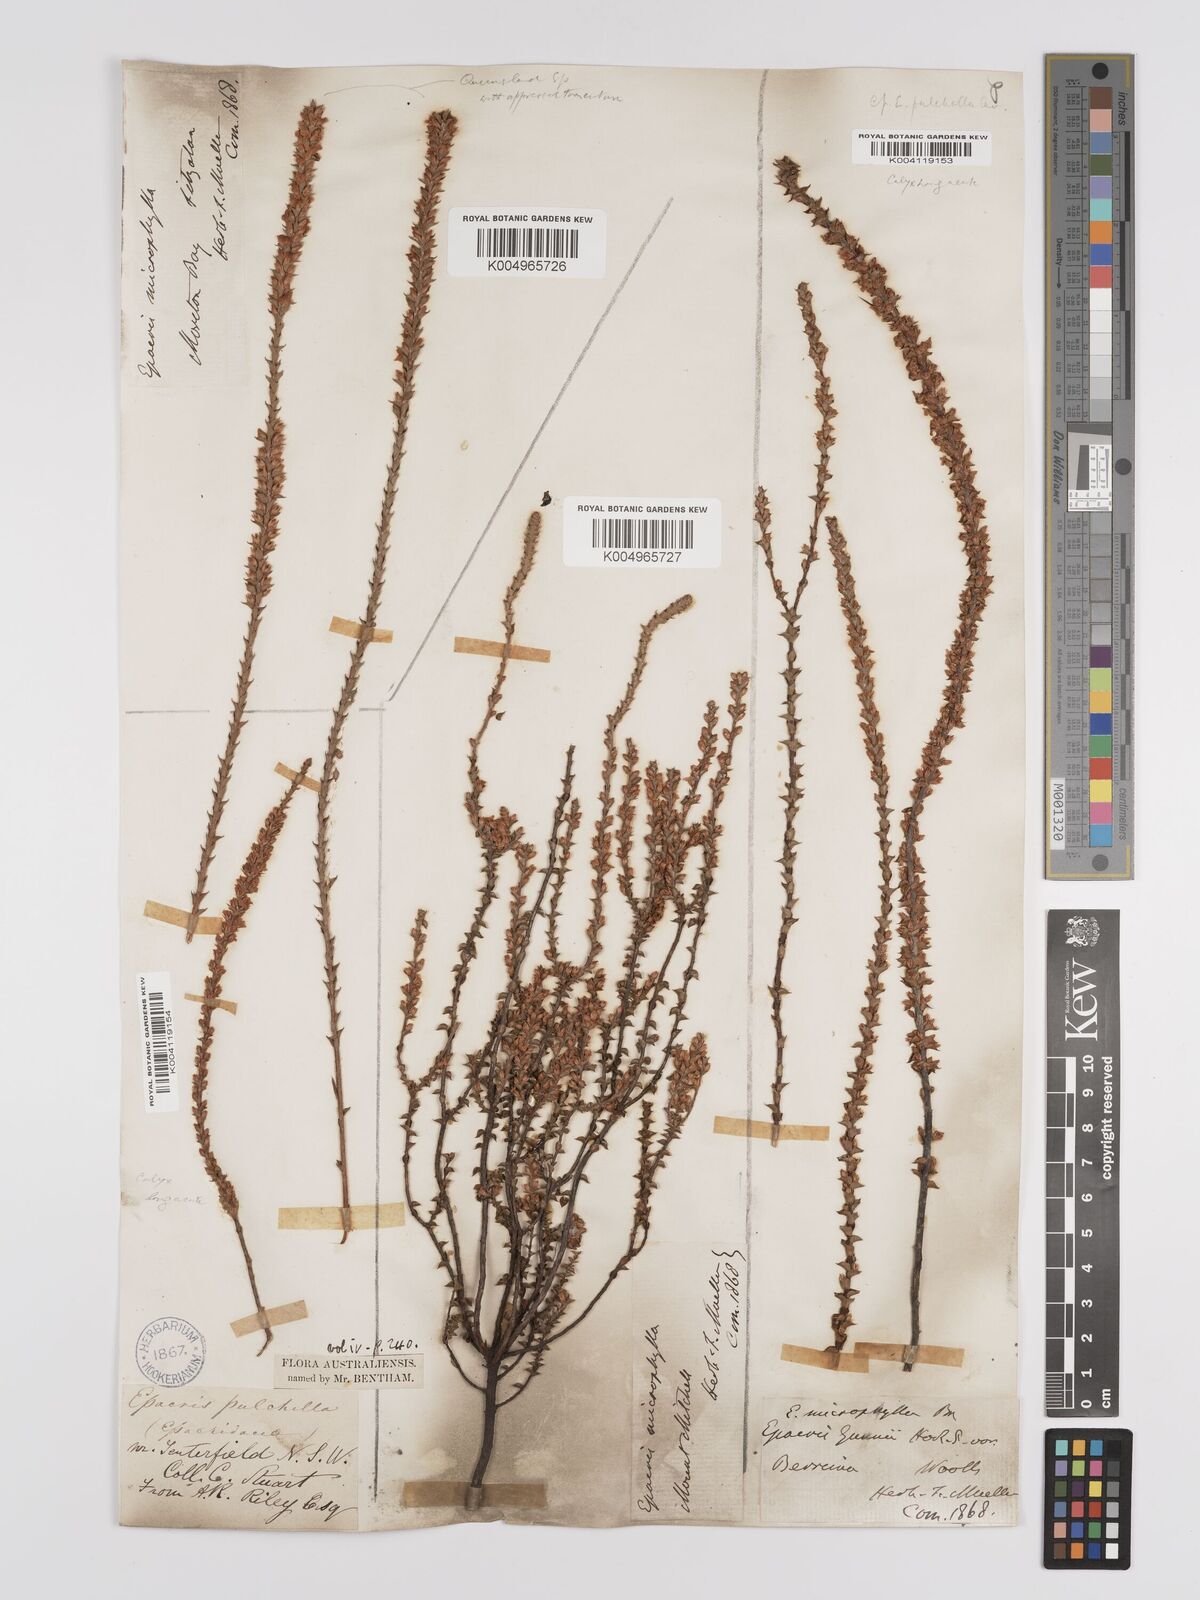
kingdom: Plantae
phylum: Tracheophyta
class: Magnoliopsida
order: Ericales
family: Ericaceae
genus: Epacris
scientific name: Epacris
